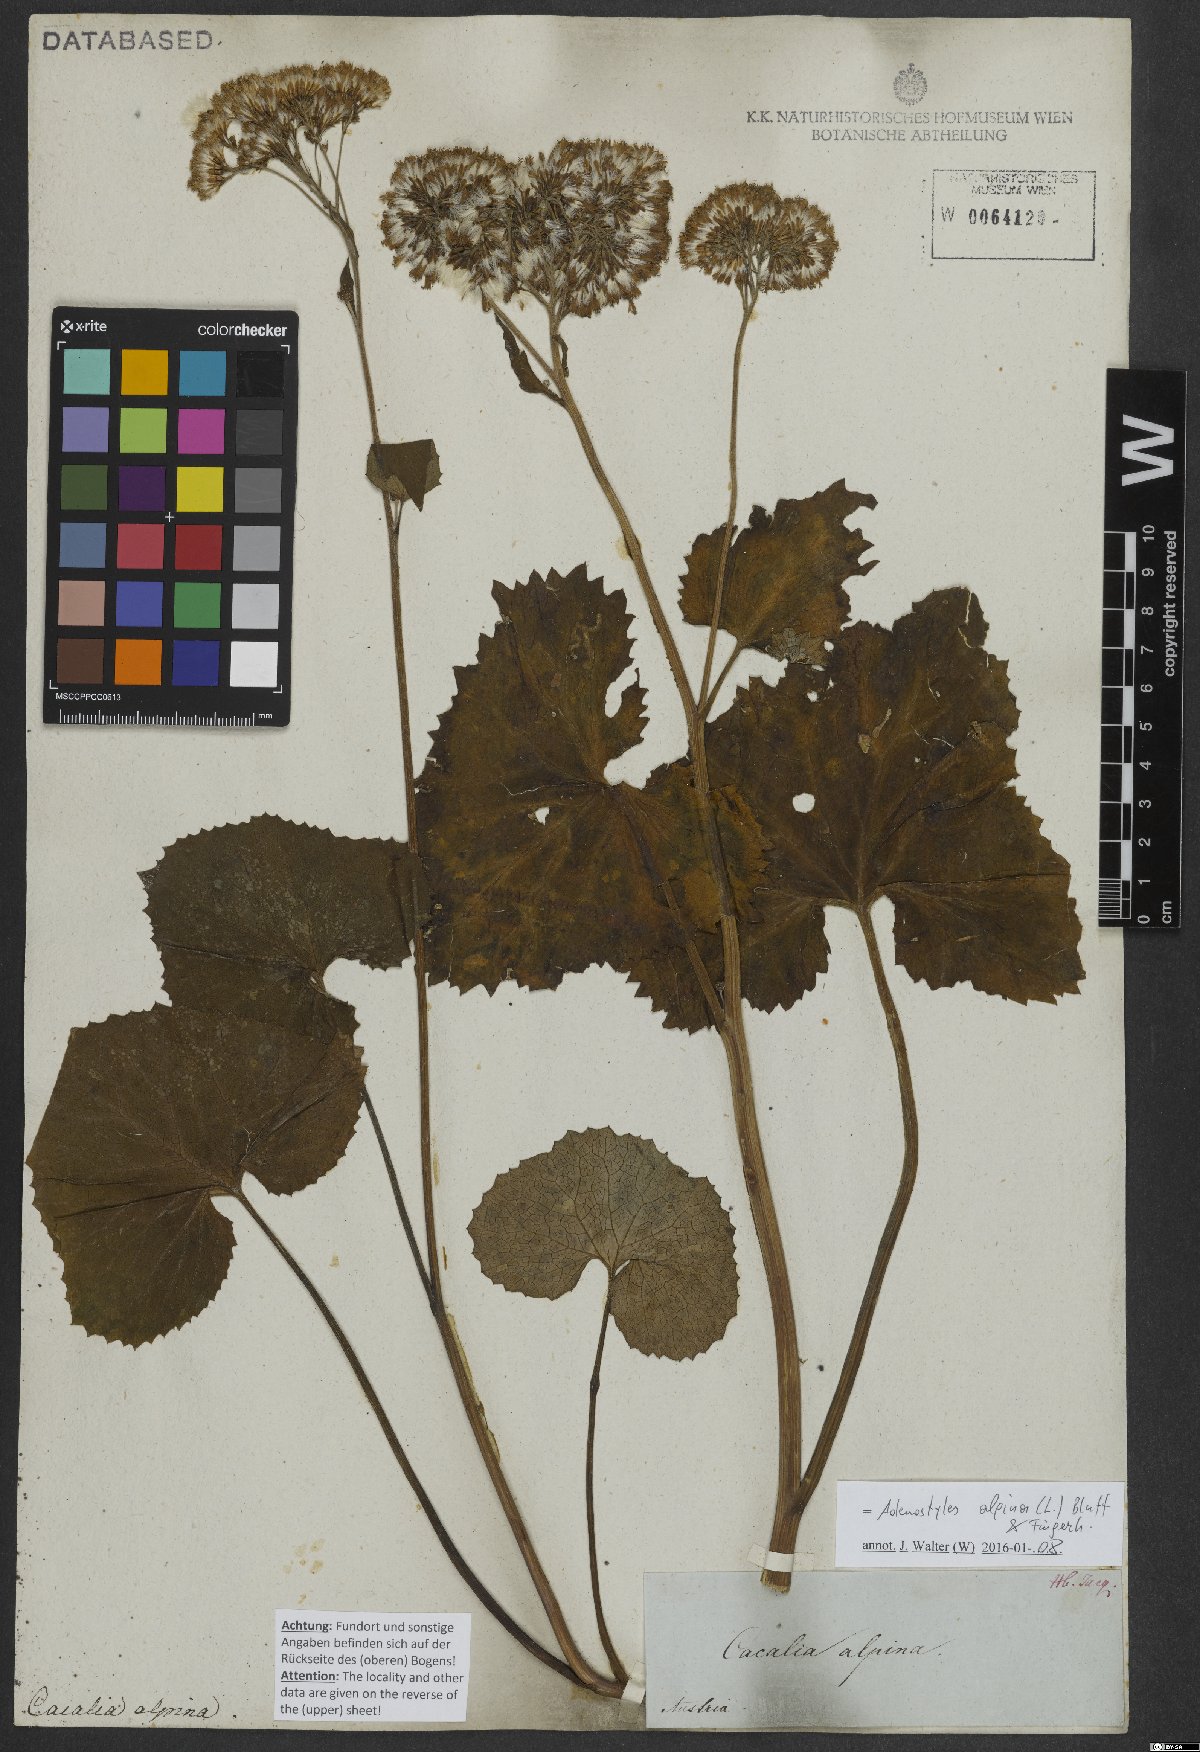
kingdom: Plantae
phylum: Tracheophyta
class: Magnoliopsida
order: Asterales
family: Asteraceae
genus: Adenostyles
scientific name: Adenostyles alpina
